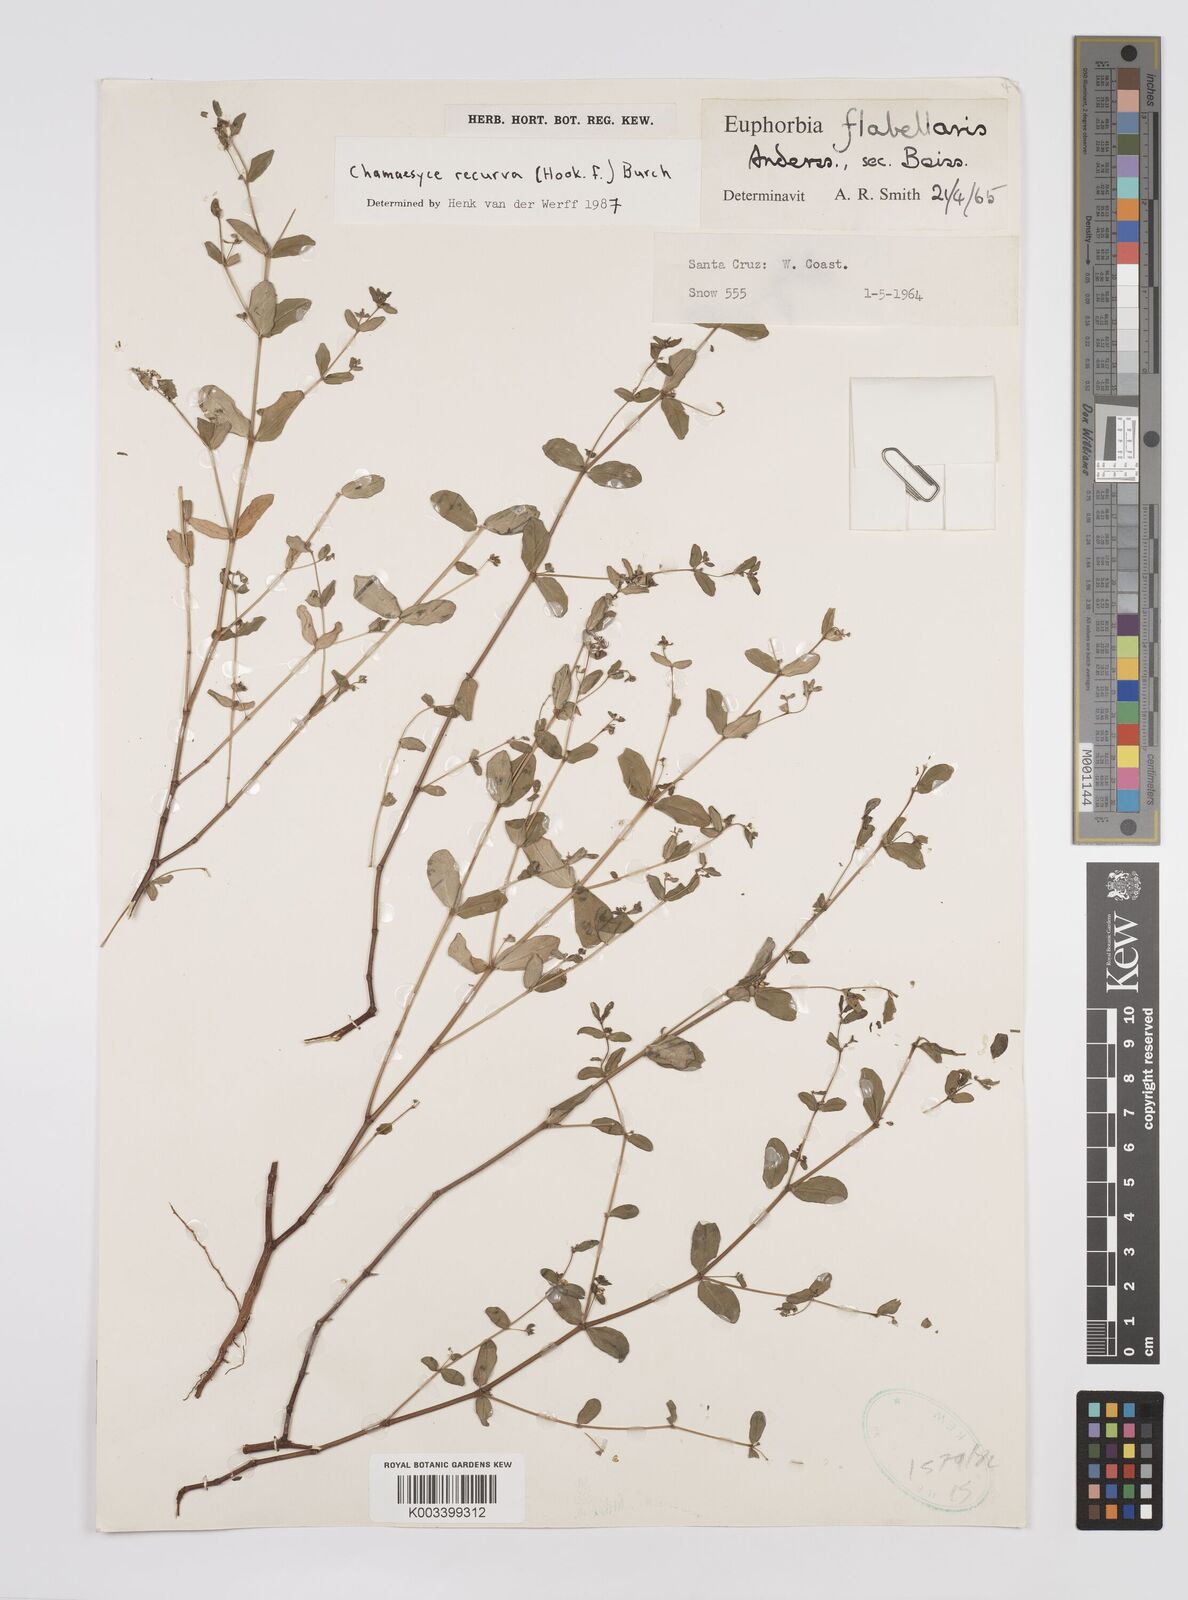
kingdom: Plantae
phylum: Tracheophyta
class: Magnoliopsida
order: Malpighiales
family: Euphorbiaceae
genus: Euphorbia
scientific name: Euphorbia recurva
